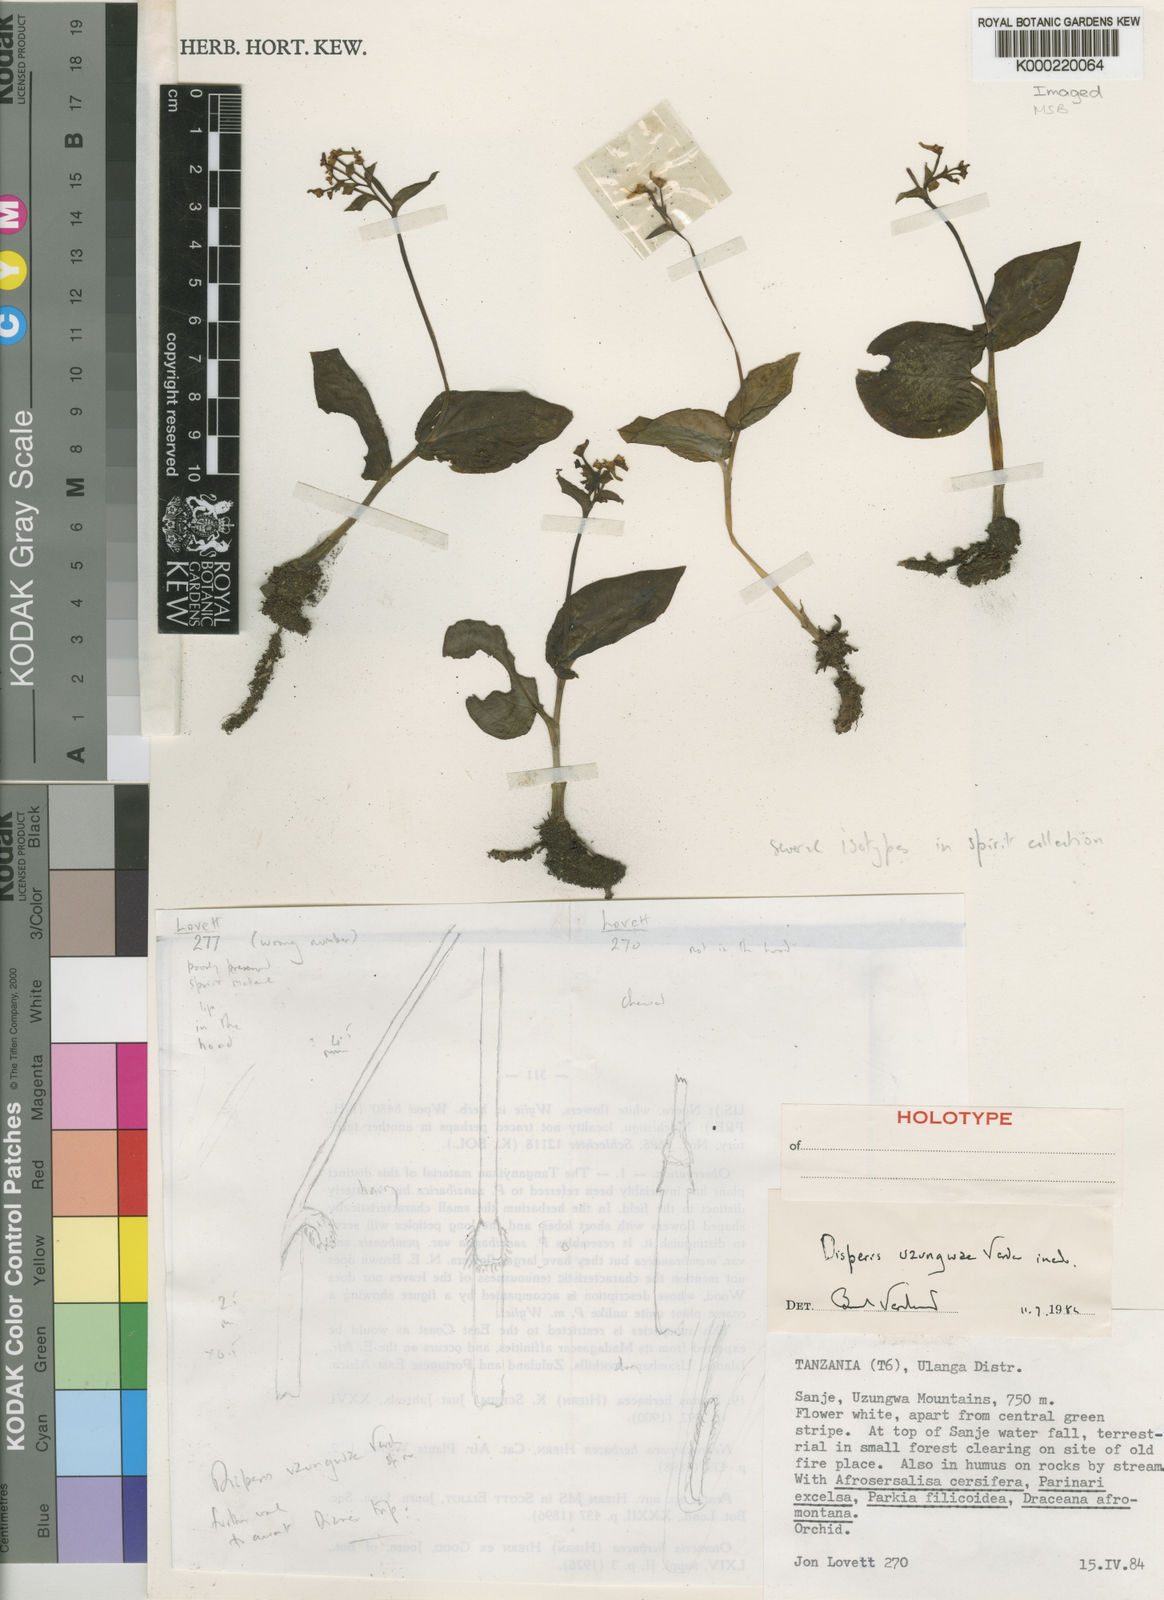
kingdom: Plantae
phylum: Tracheophyta
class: Liliopsida
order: Asparagales
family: Orchidaceae
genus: Disperis
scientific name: Disperis uzungwae
